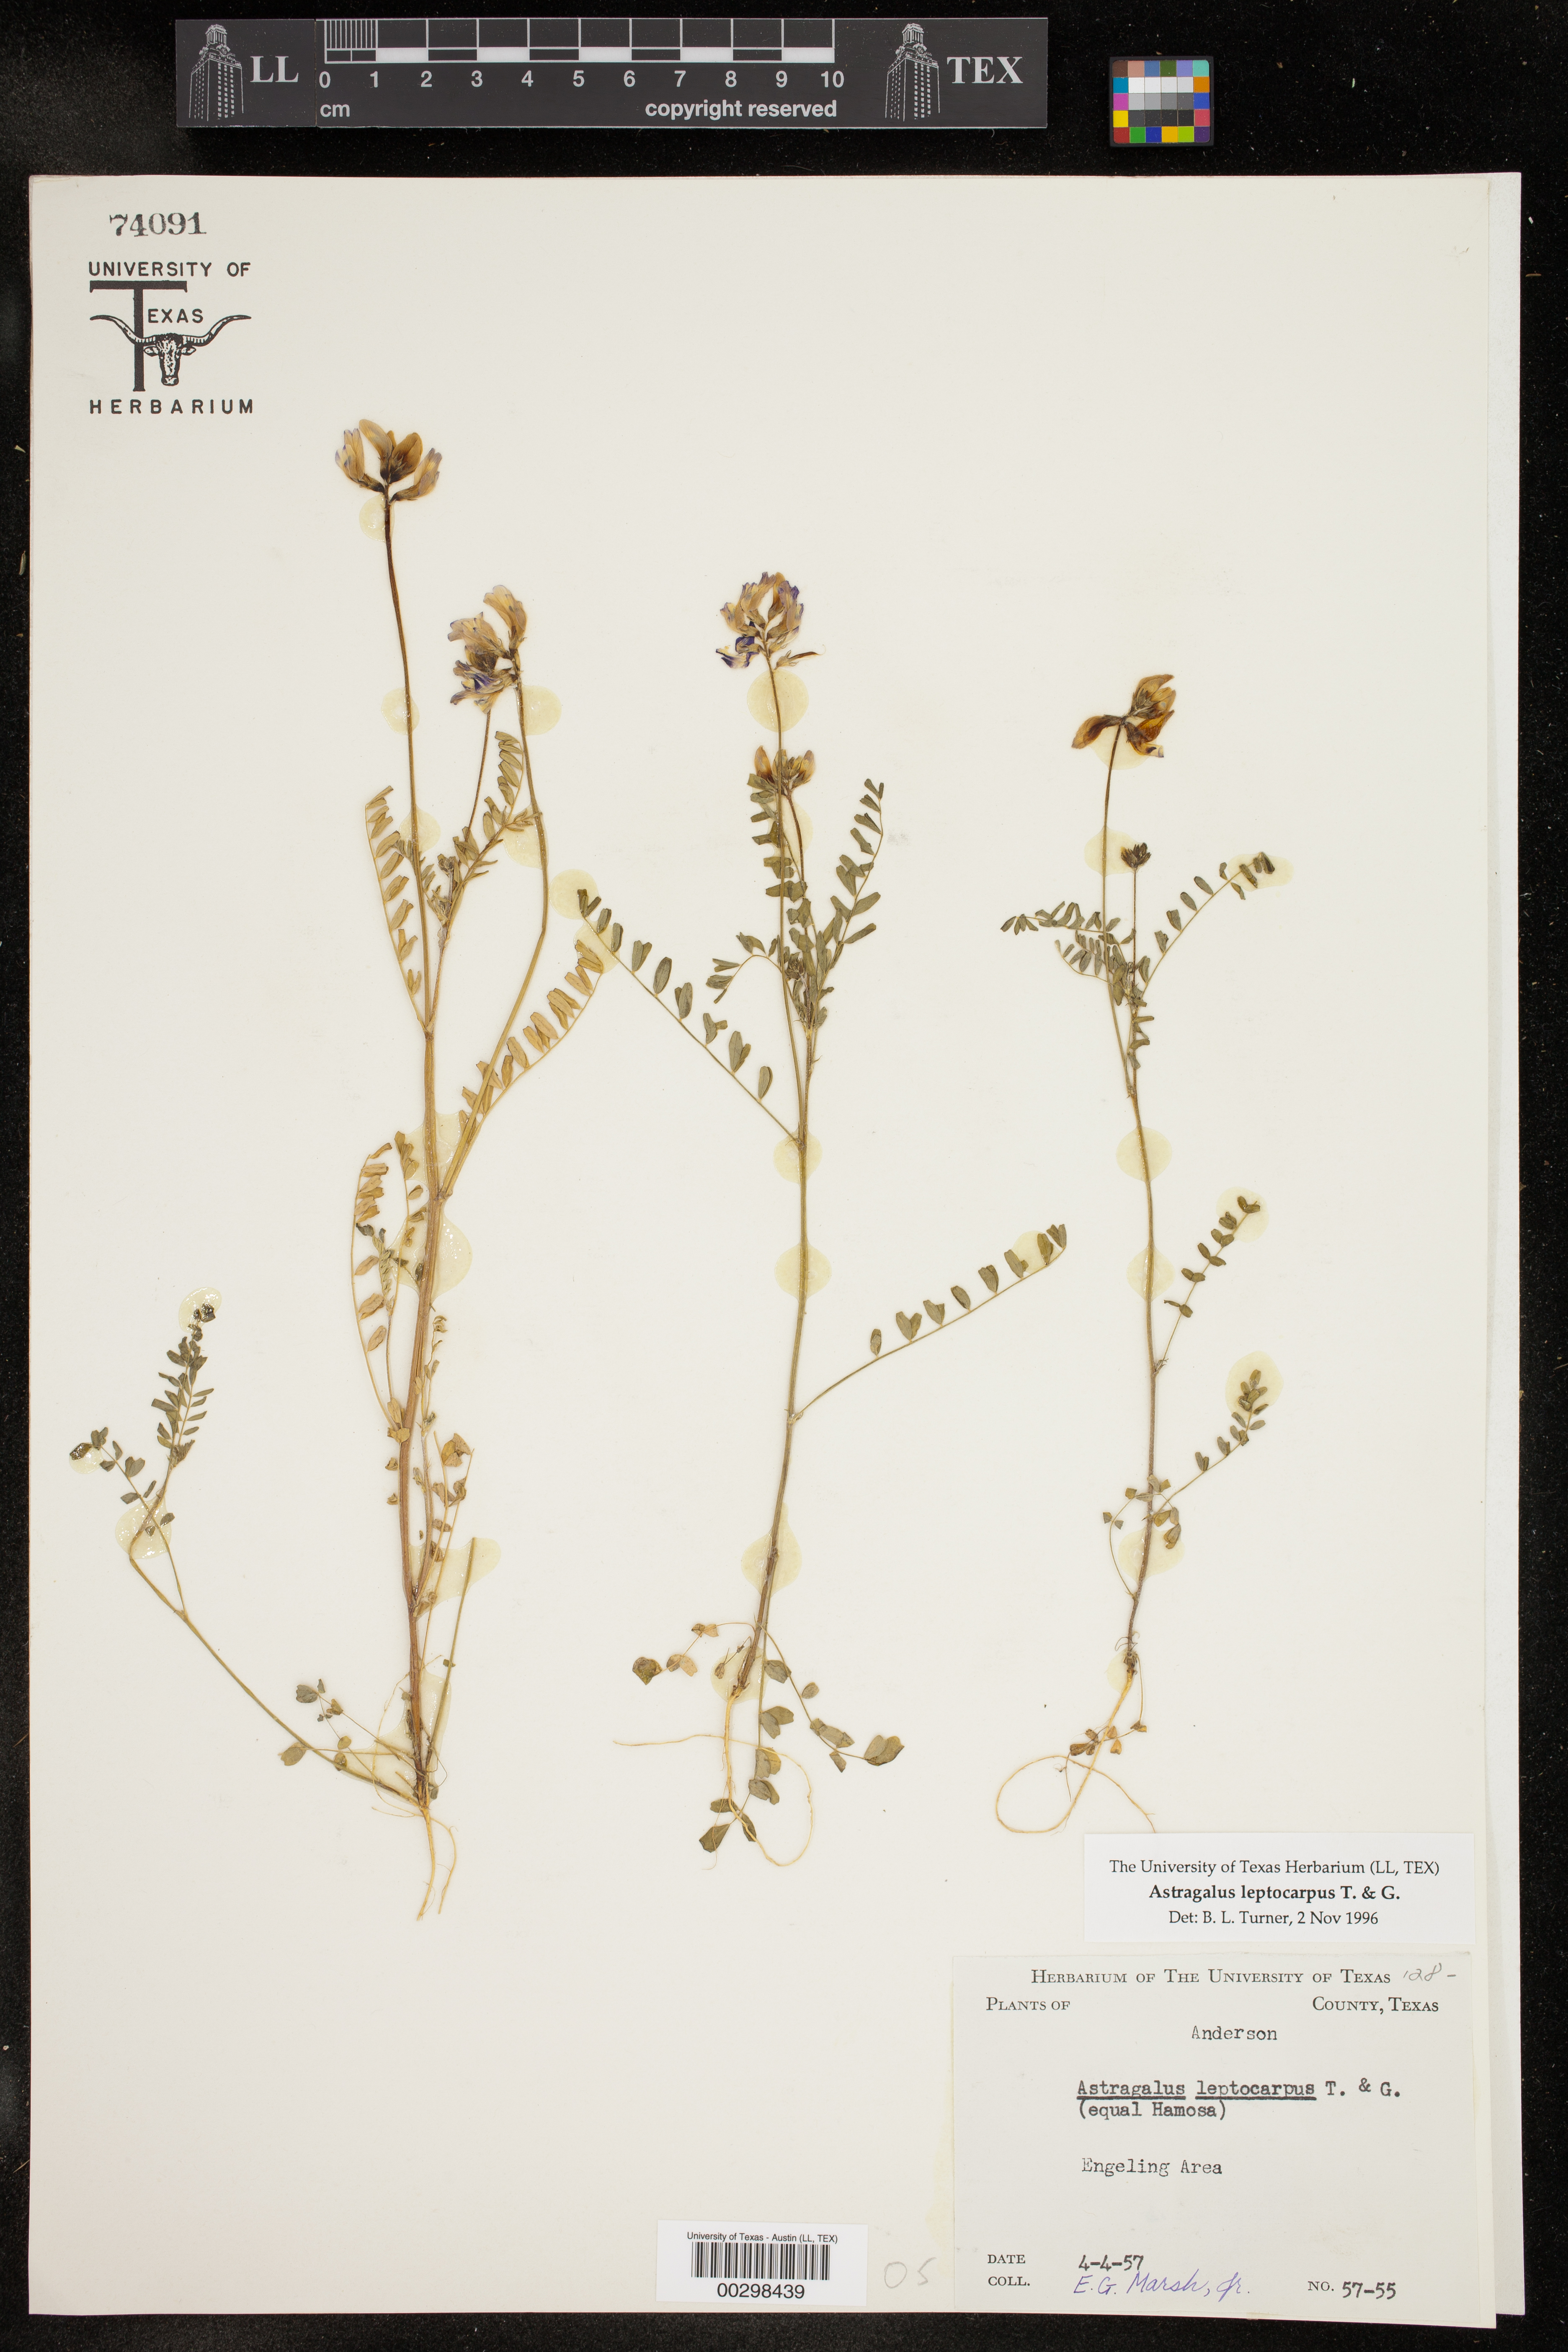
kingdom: Plantae
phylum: Tracheophyta
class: Magnoliopsida
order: Fabales
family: Fabaceae
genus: Astragalus
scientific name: Astragalus leptocarpus
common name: Bodkin milk-vetch
